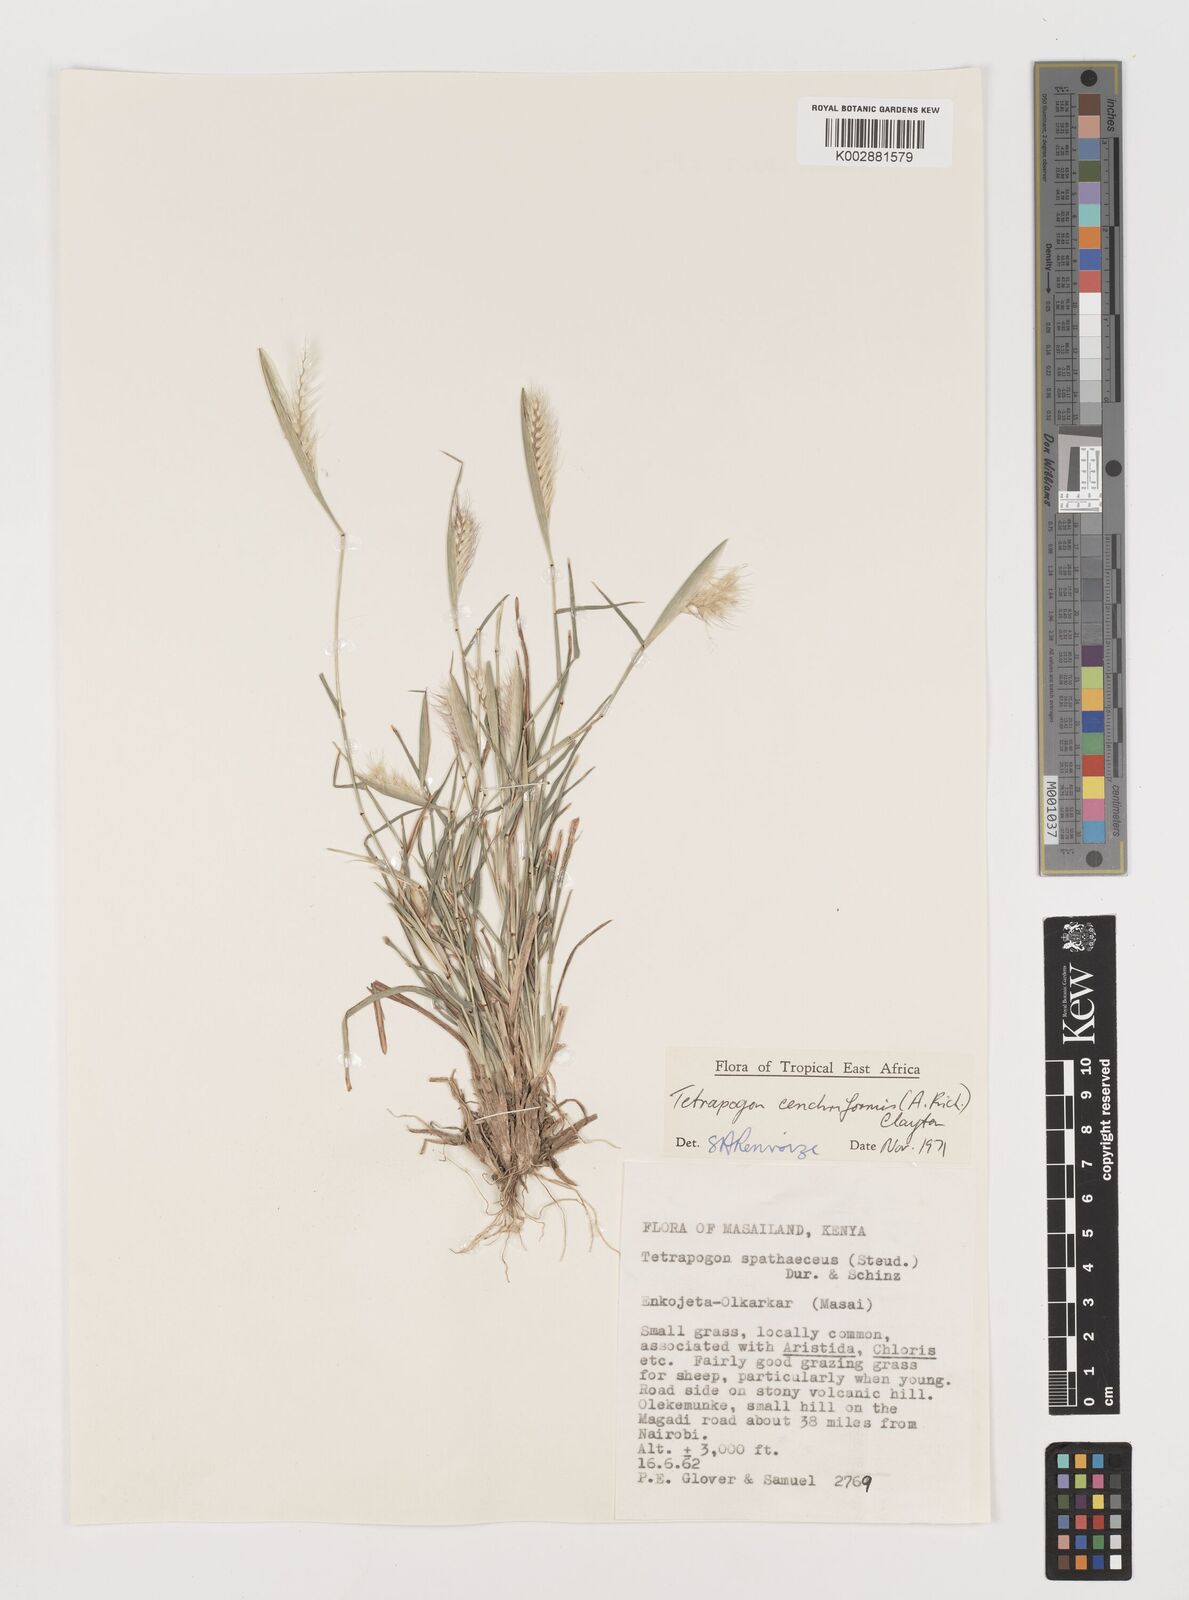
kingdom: Plantae
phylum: Tracheophyta
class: Liliopsida
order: Poales
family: Poaceae
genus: Tetrapogon
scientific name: Tetrapogon cenchriformis
